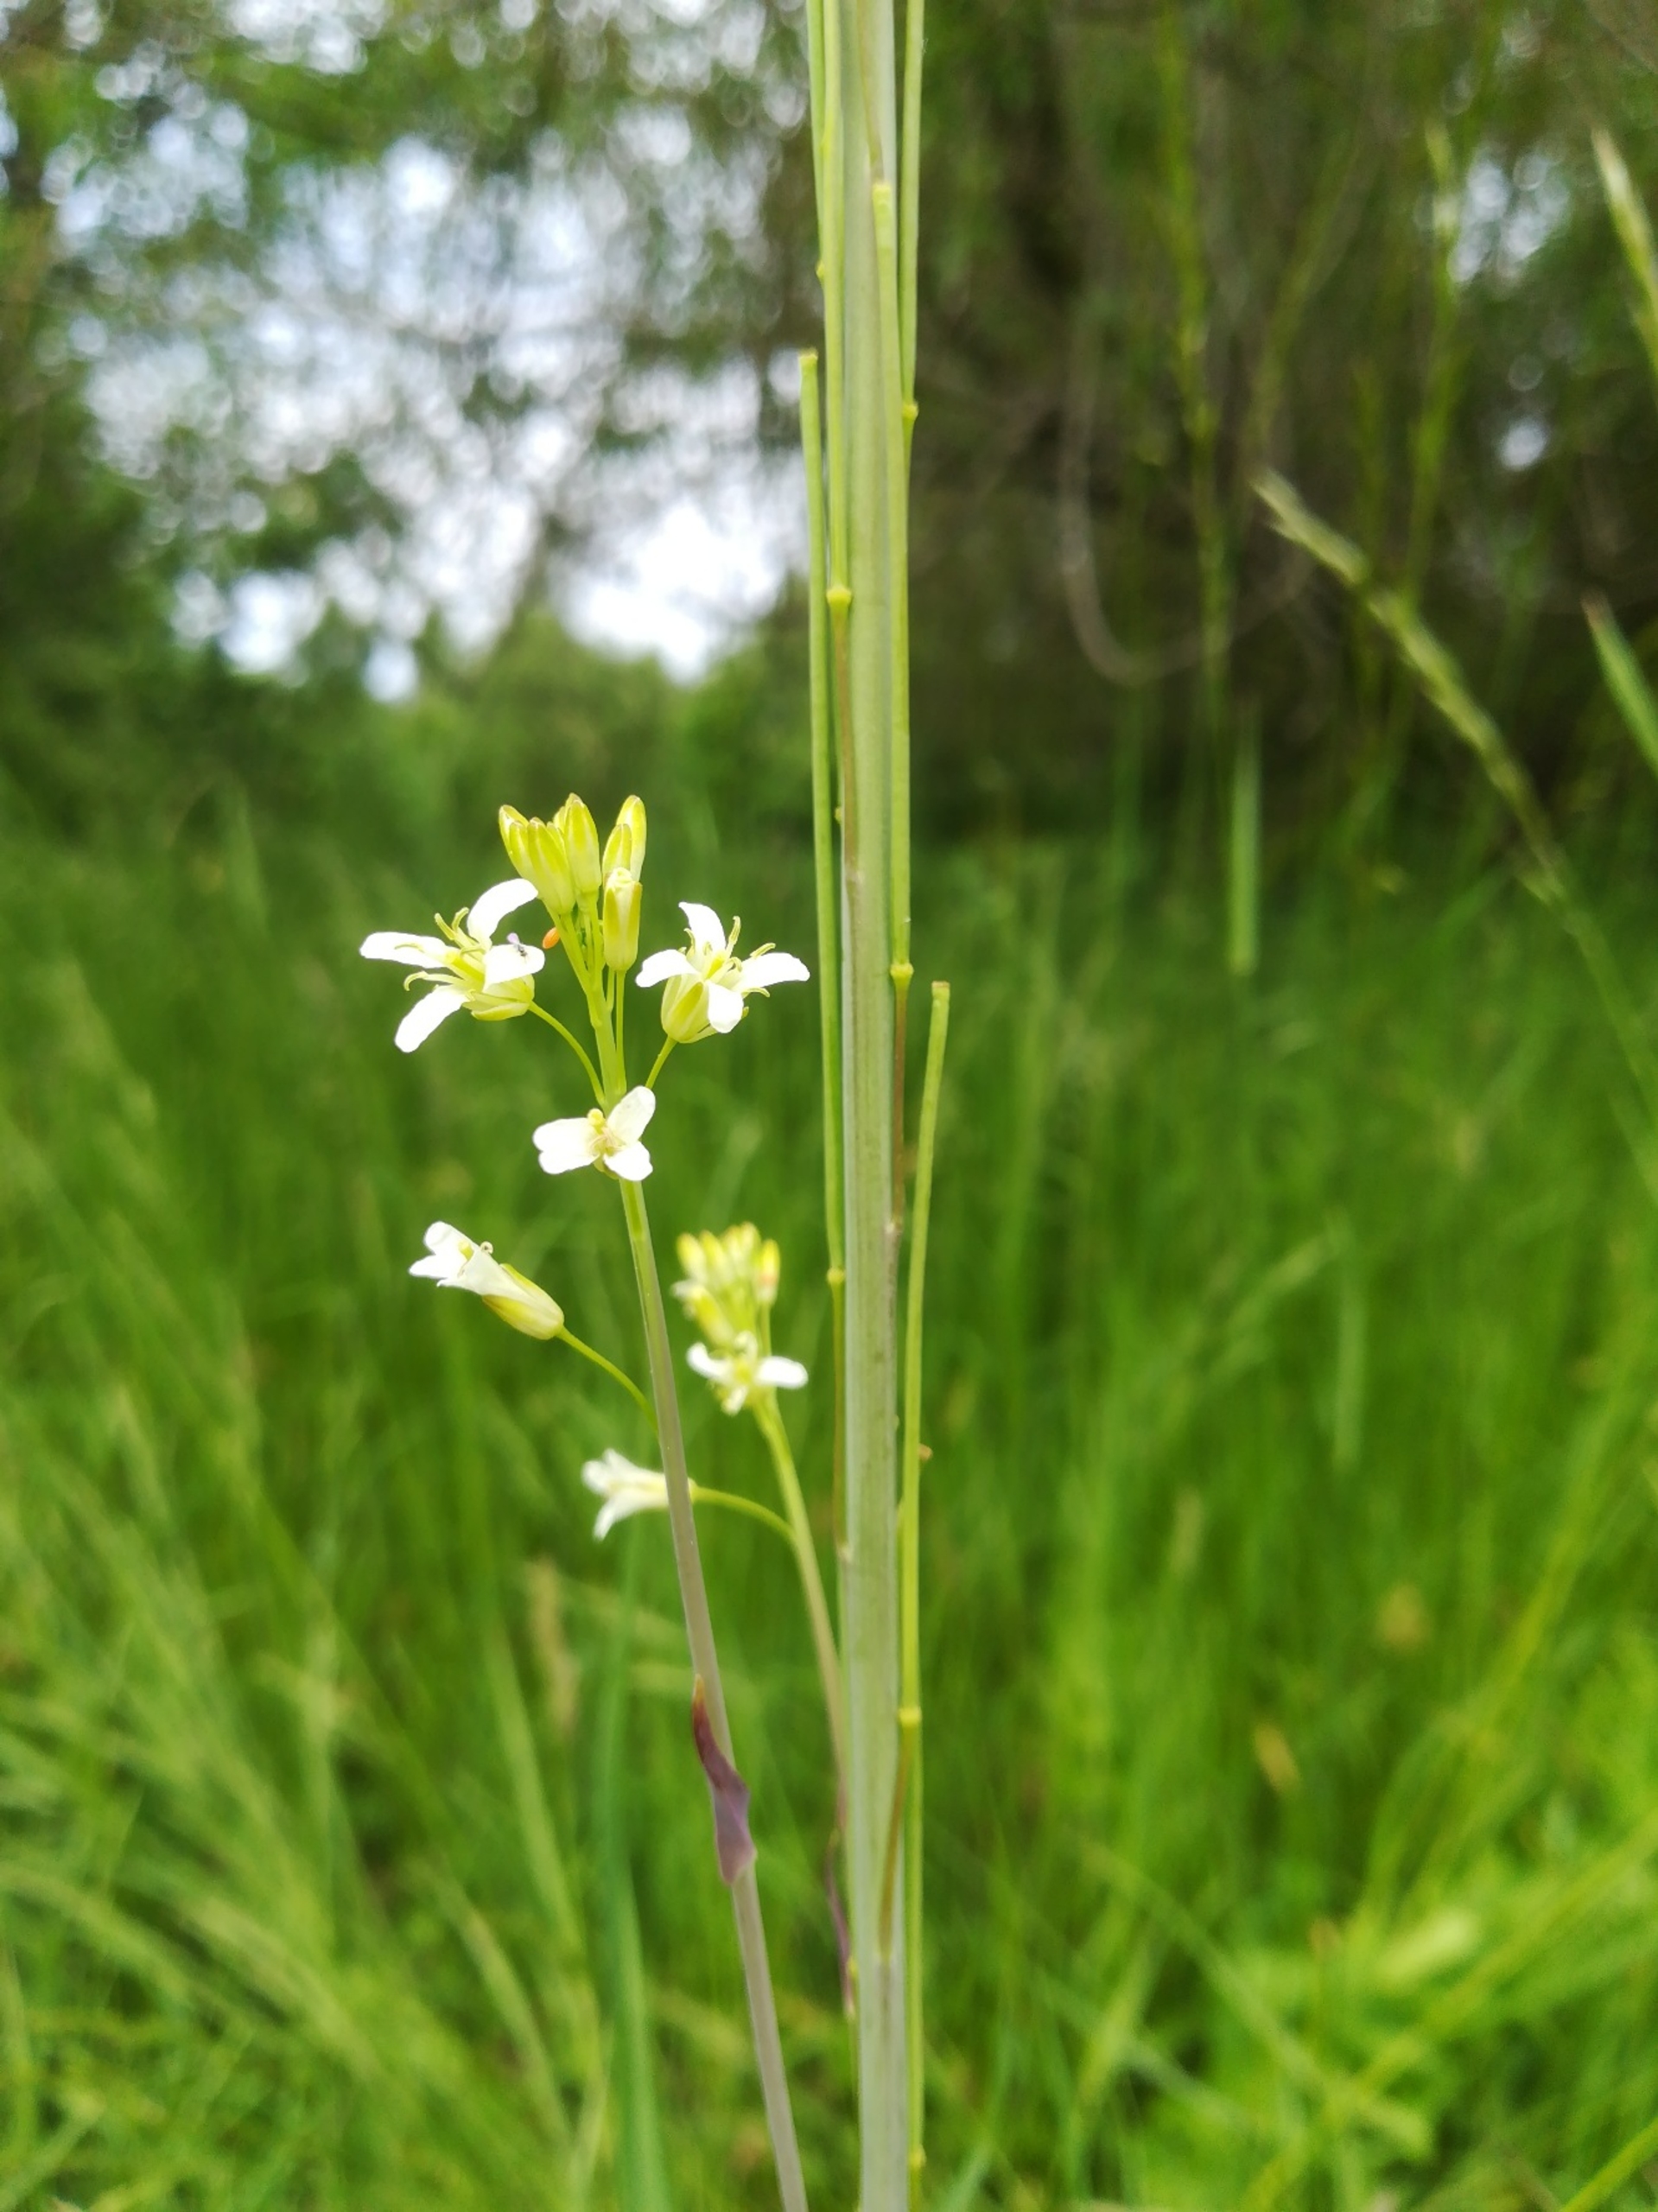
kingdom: Plantae
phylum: Tracheophyta
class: Magnoliopsida
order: Brassicales
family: Brassicaceae
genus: Turritis
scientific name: Turritis glabra
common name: Tårnurt
